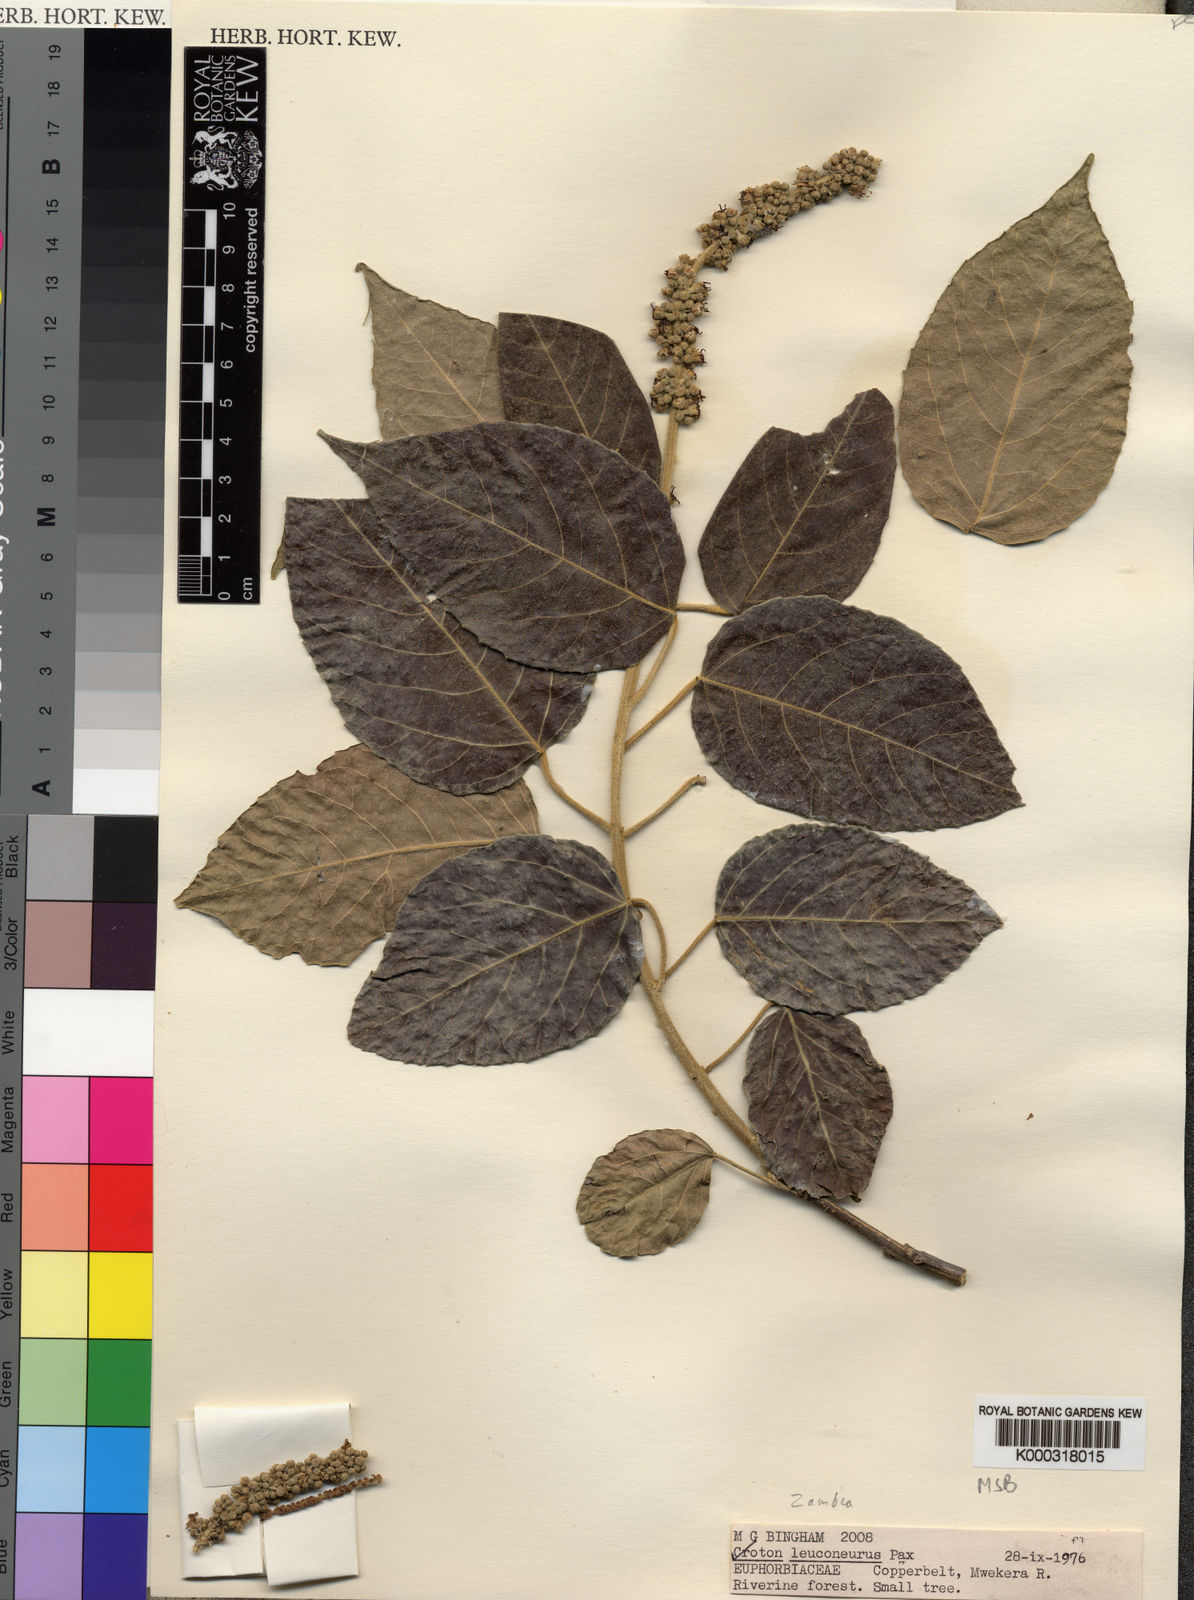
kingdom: Plantae
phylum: Tracheophyta
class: Magnoliopsida
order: Malpighiales
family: Euphorbiaceae
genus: Croton
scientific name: Croton leuconeurus
